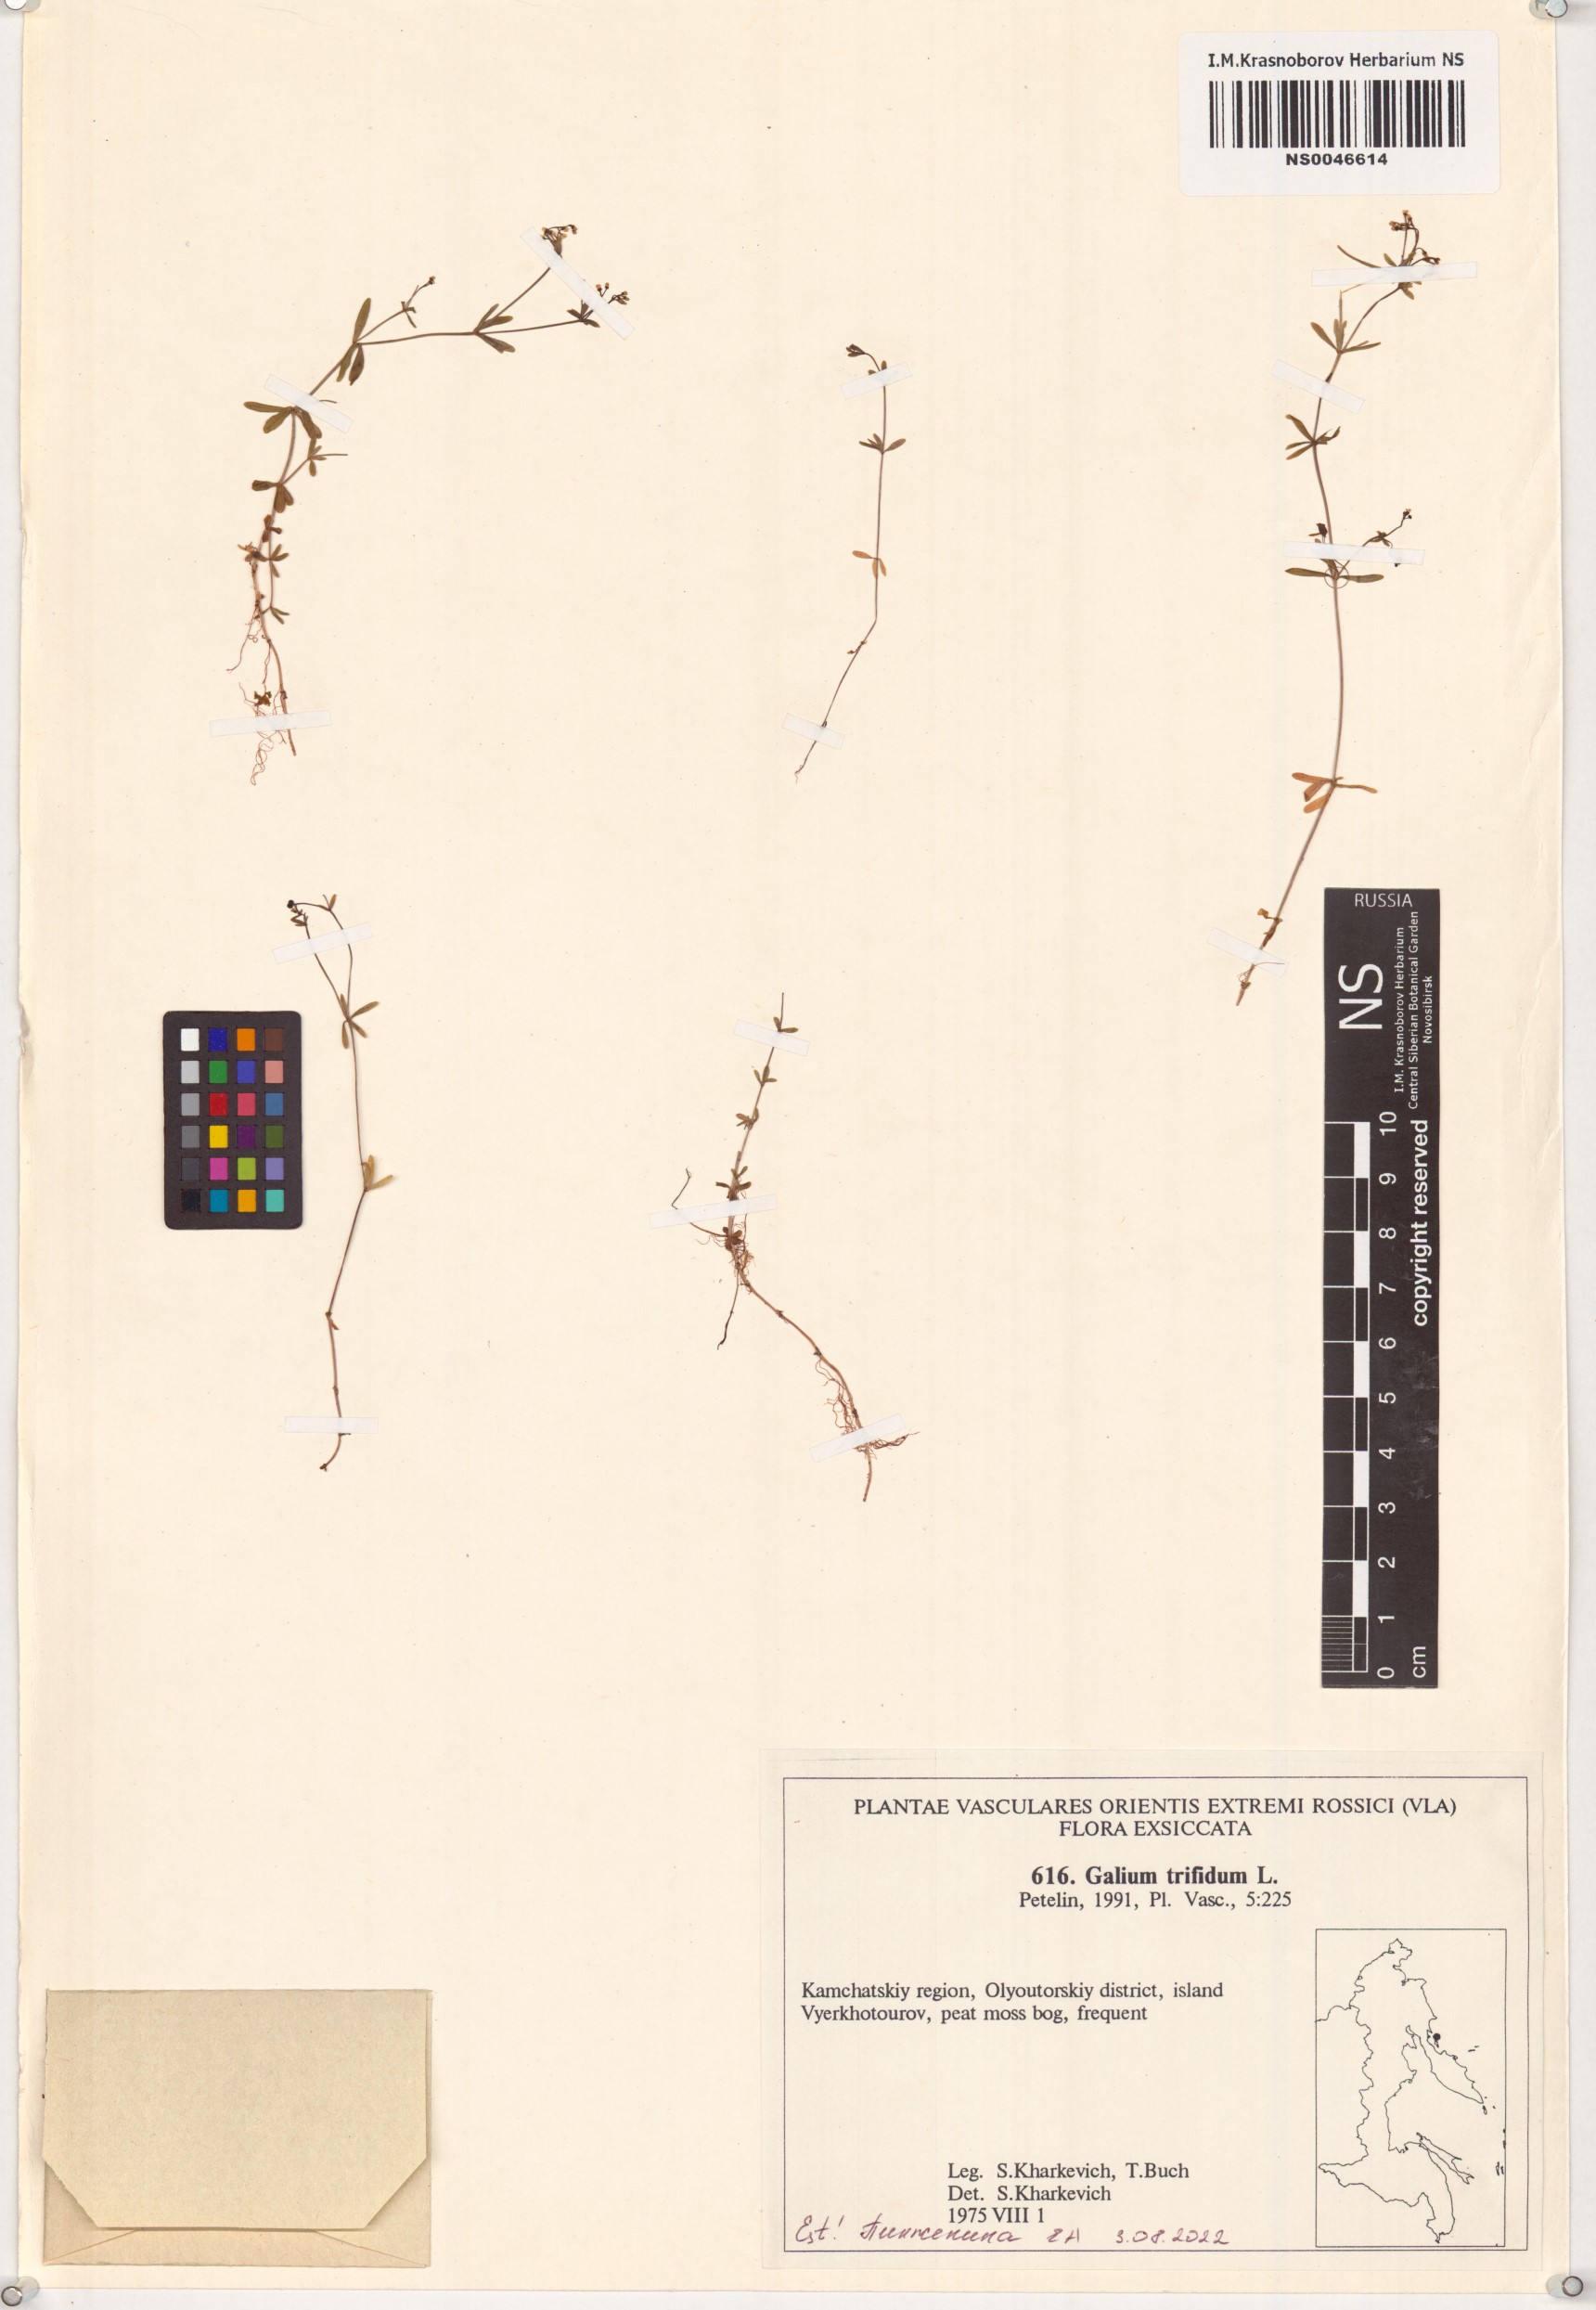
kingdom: Plantae
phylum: Tracheophyta
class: Magnoliopsida
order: Gentianales
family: Rubiaceae
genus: Galium
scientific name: Galium trifidum
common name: Small bedstraw
